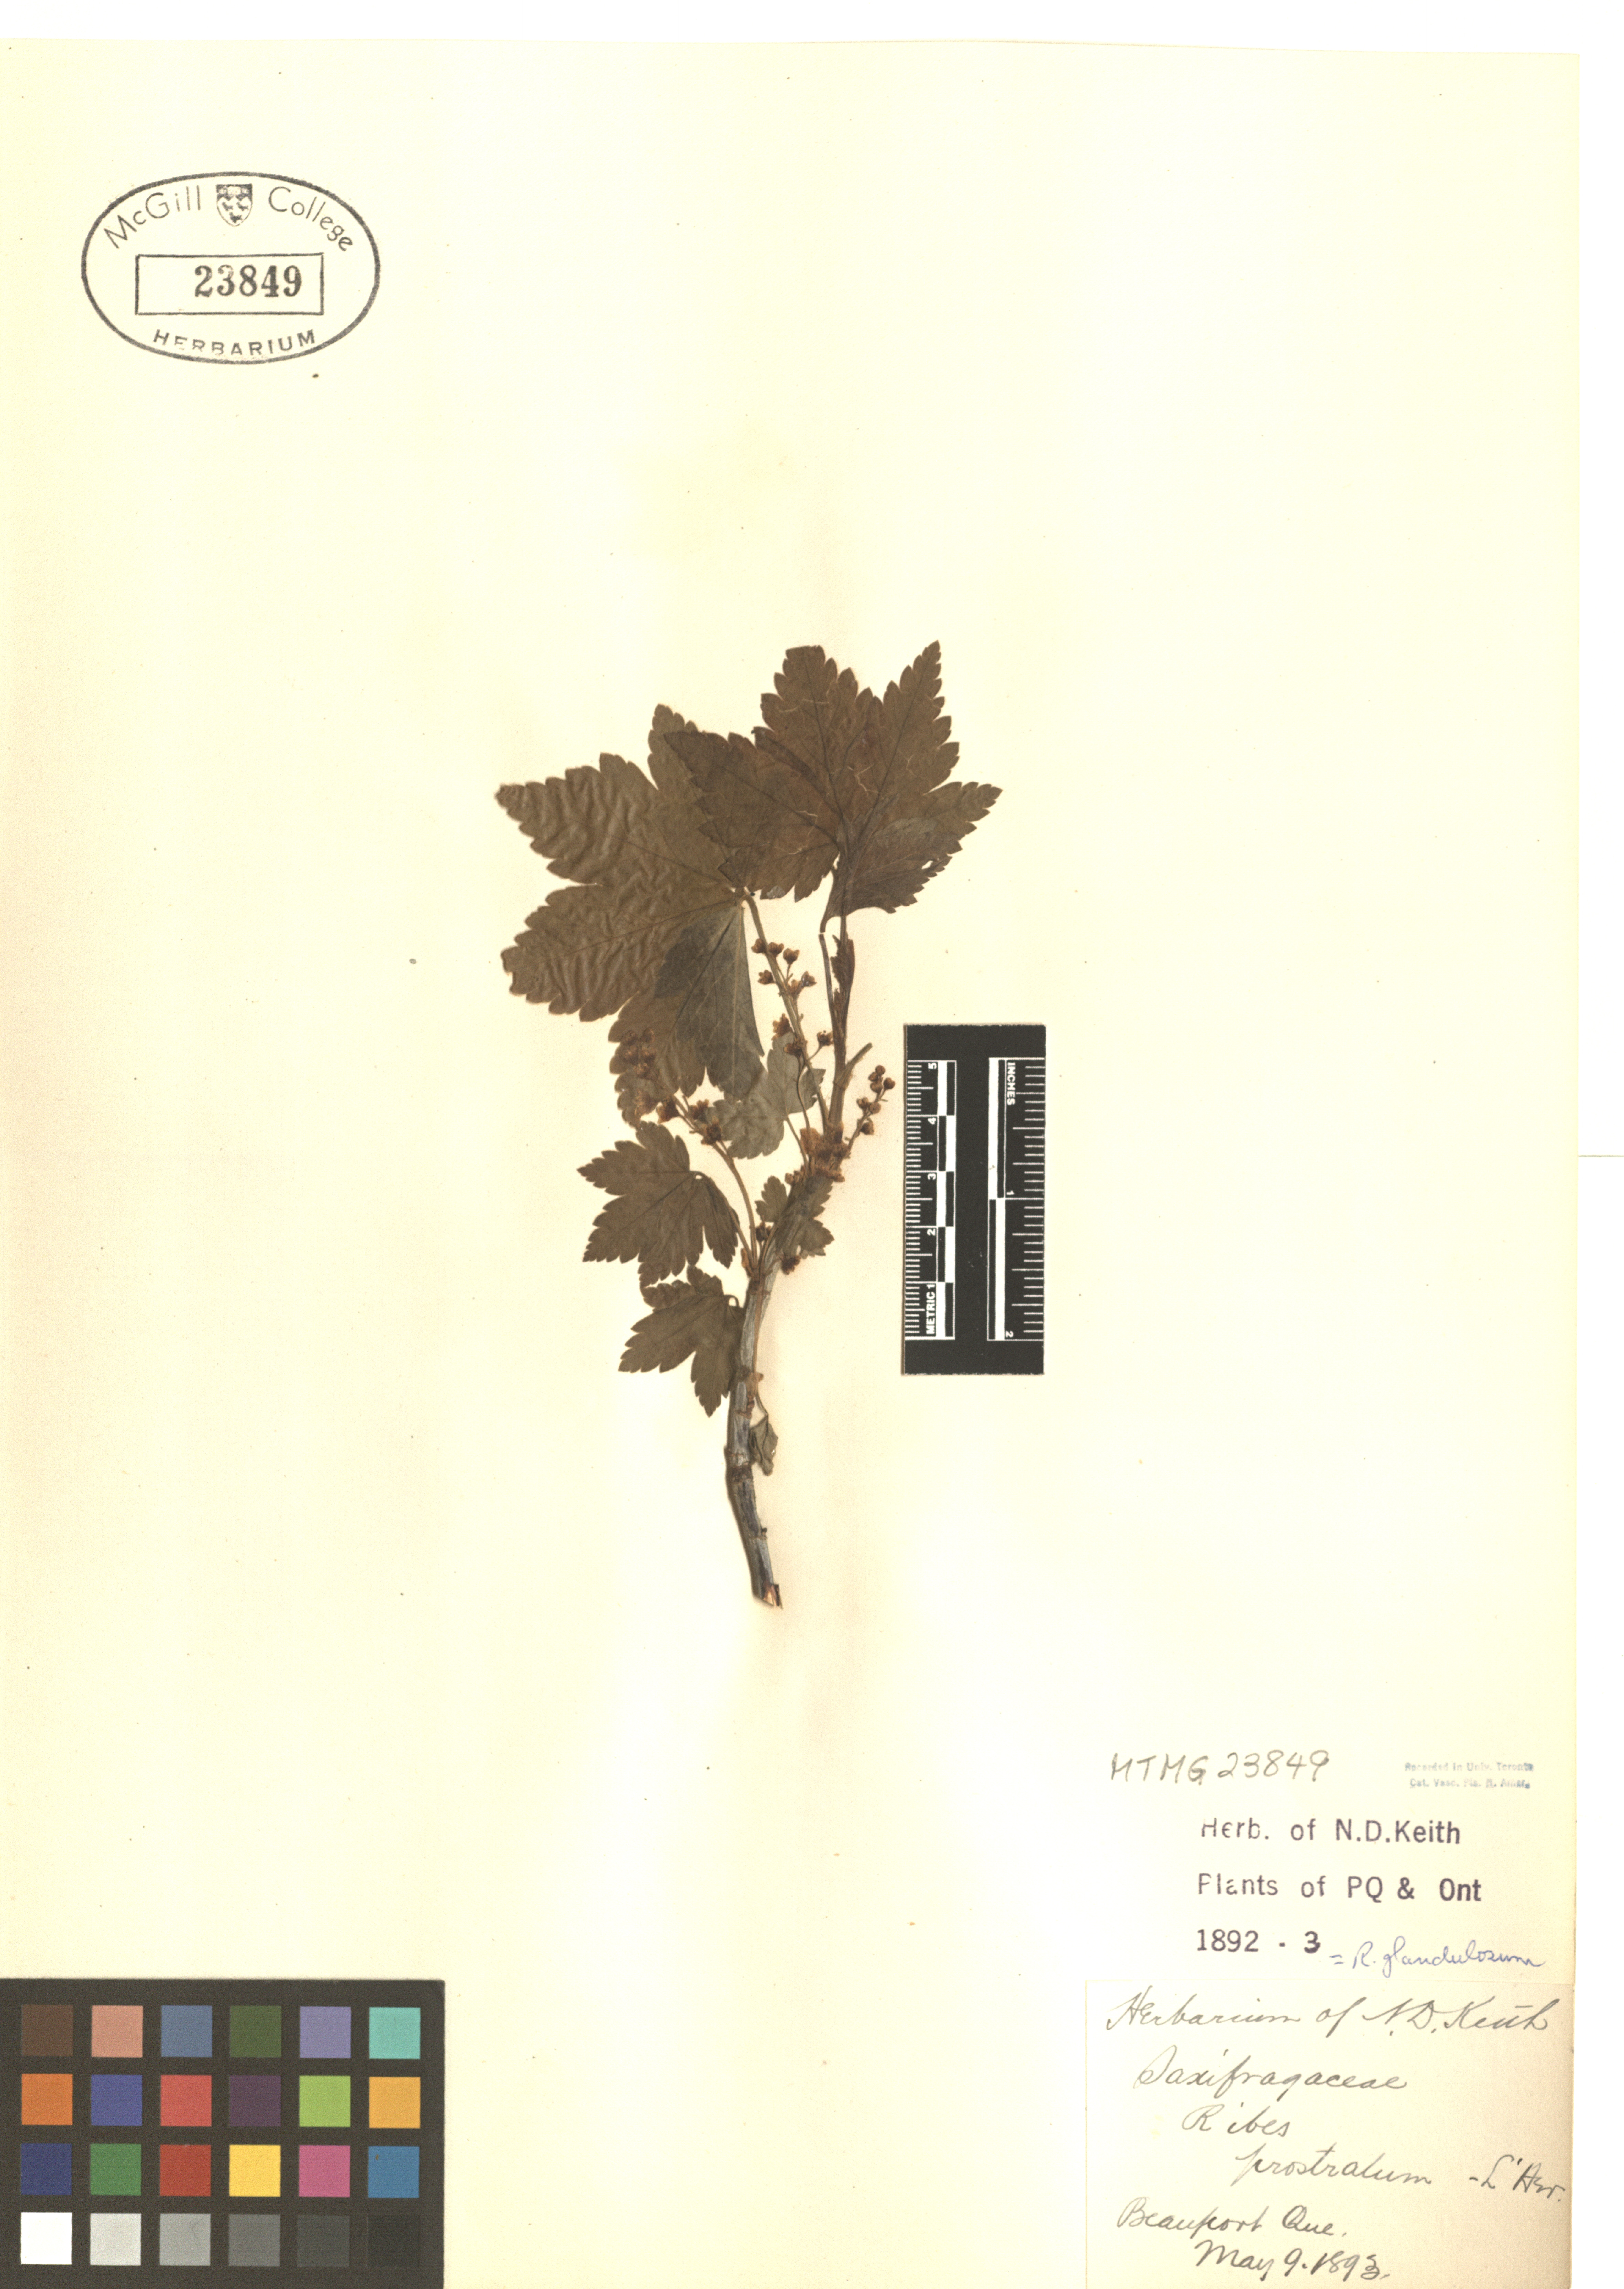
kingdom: Plantae
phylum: Tracheophyta
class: Magnoliopsida
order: Saxifragales
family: Grossulariaceae
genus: Ribes
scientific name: Ribes glandulosum
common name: Skunk currant
